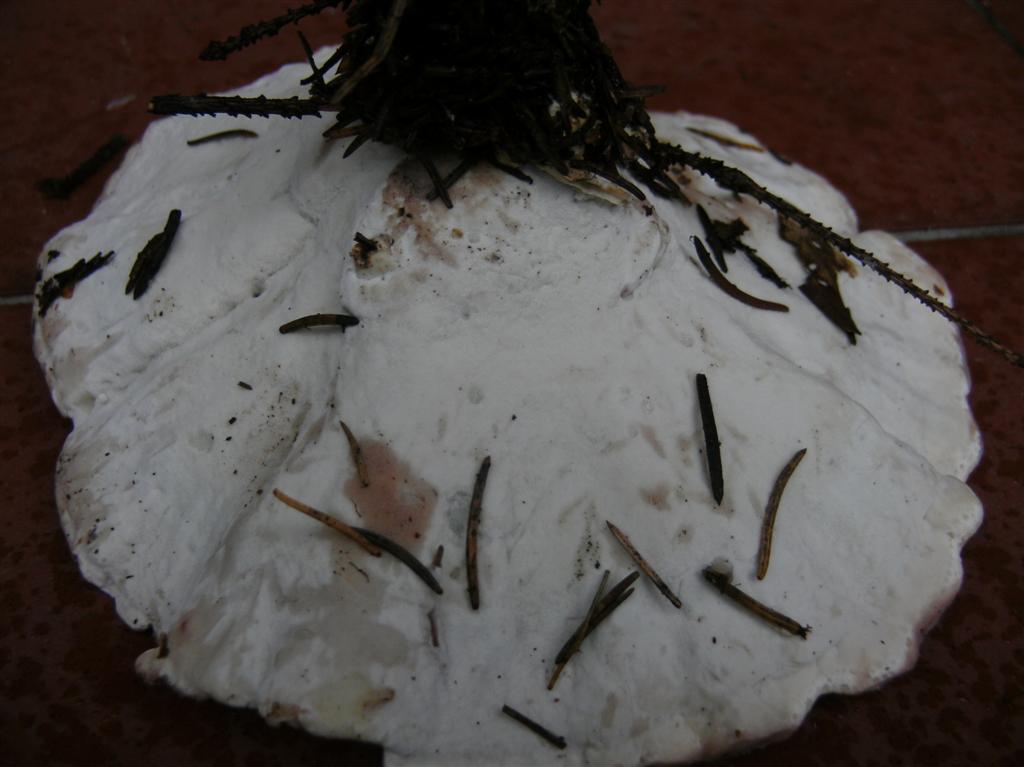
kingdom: Fungi
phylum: Basidiomycota
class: Agaricomycetes
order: Polyporales
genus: Calcipostia
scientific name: Calcipostia guttulata
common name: dråbe-kødporesvamp
